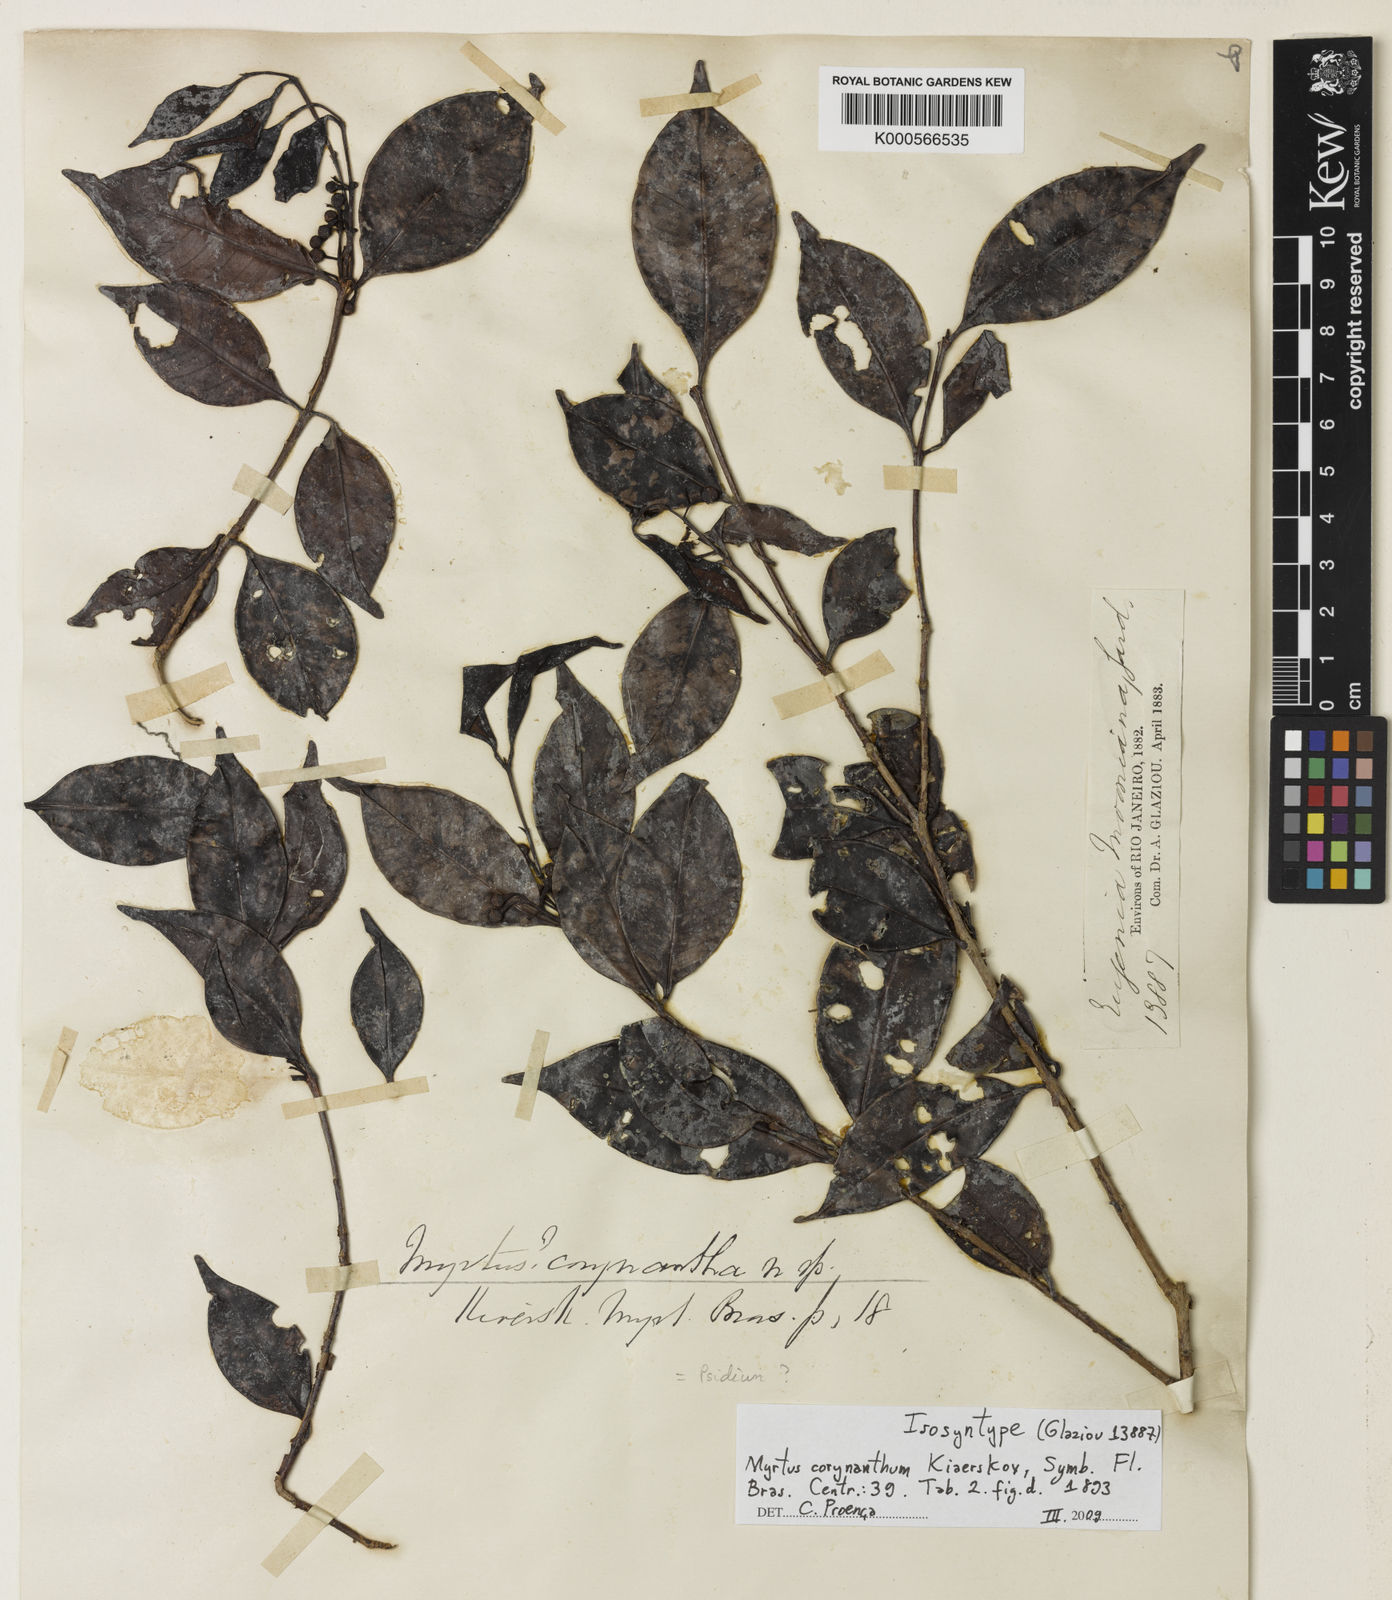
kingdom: Plantae
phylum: Tracheophyta
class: Magnoliopsida
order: Myrtales
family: Myrtaceae
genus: Myrtus
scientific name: Myrtus
